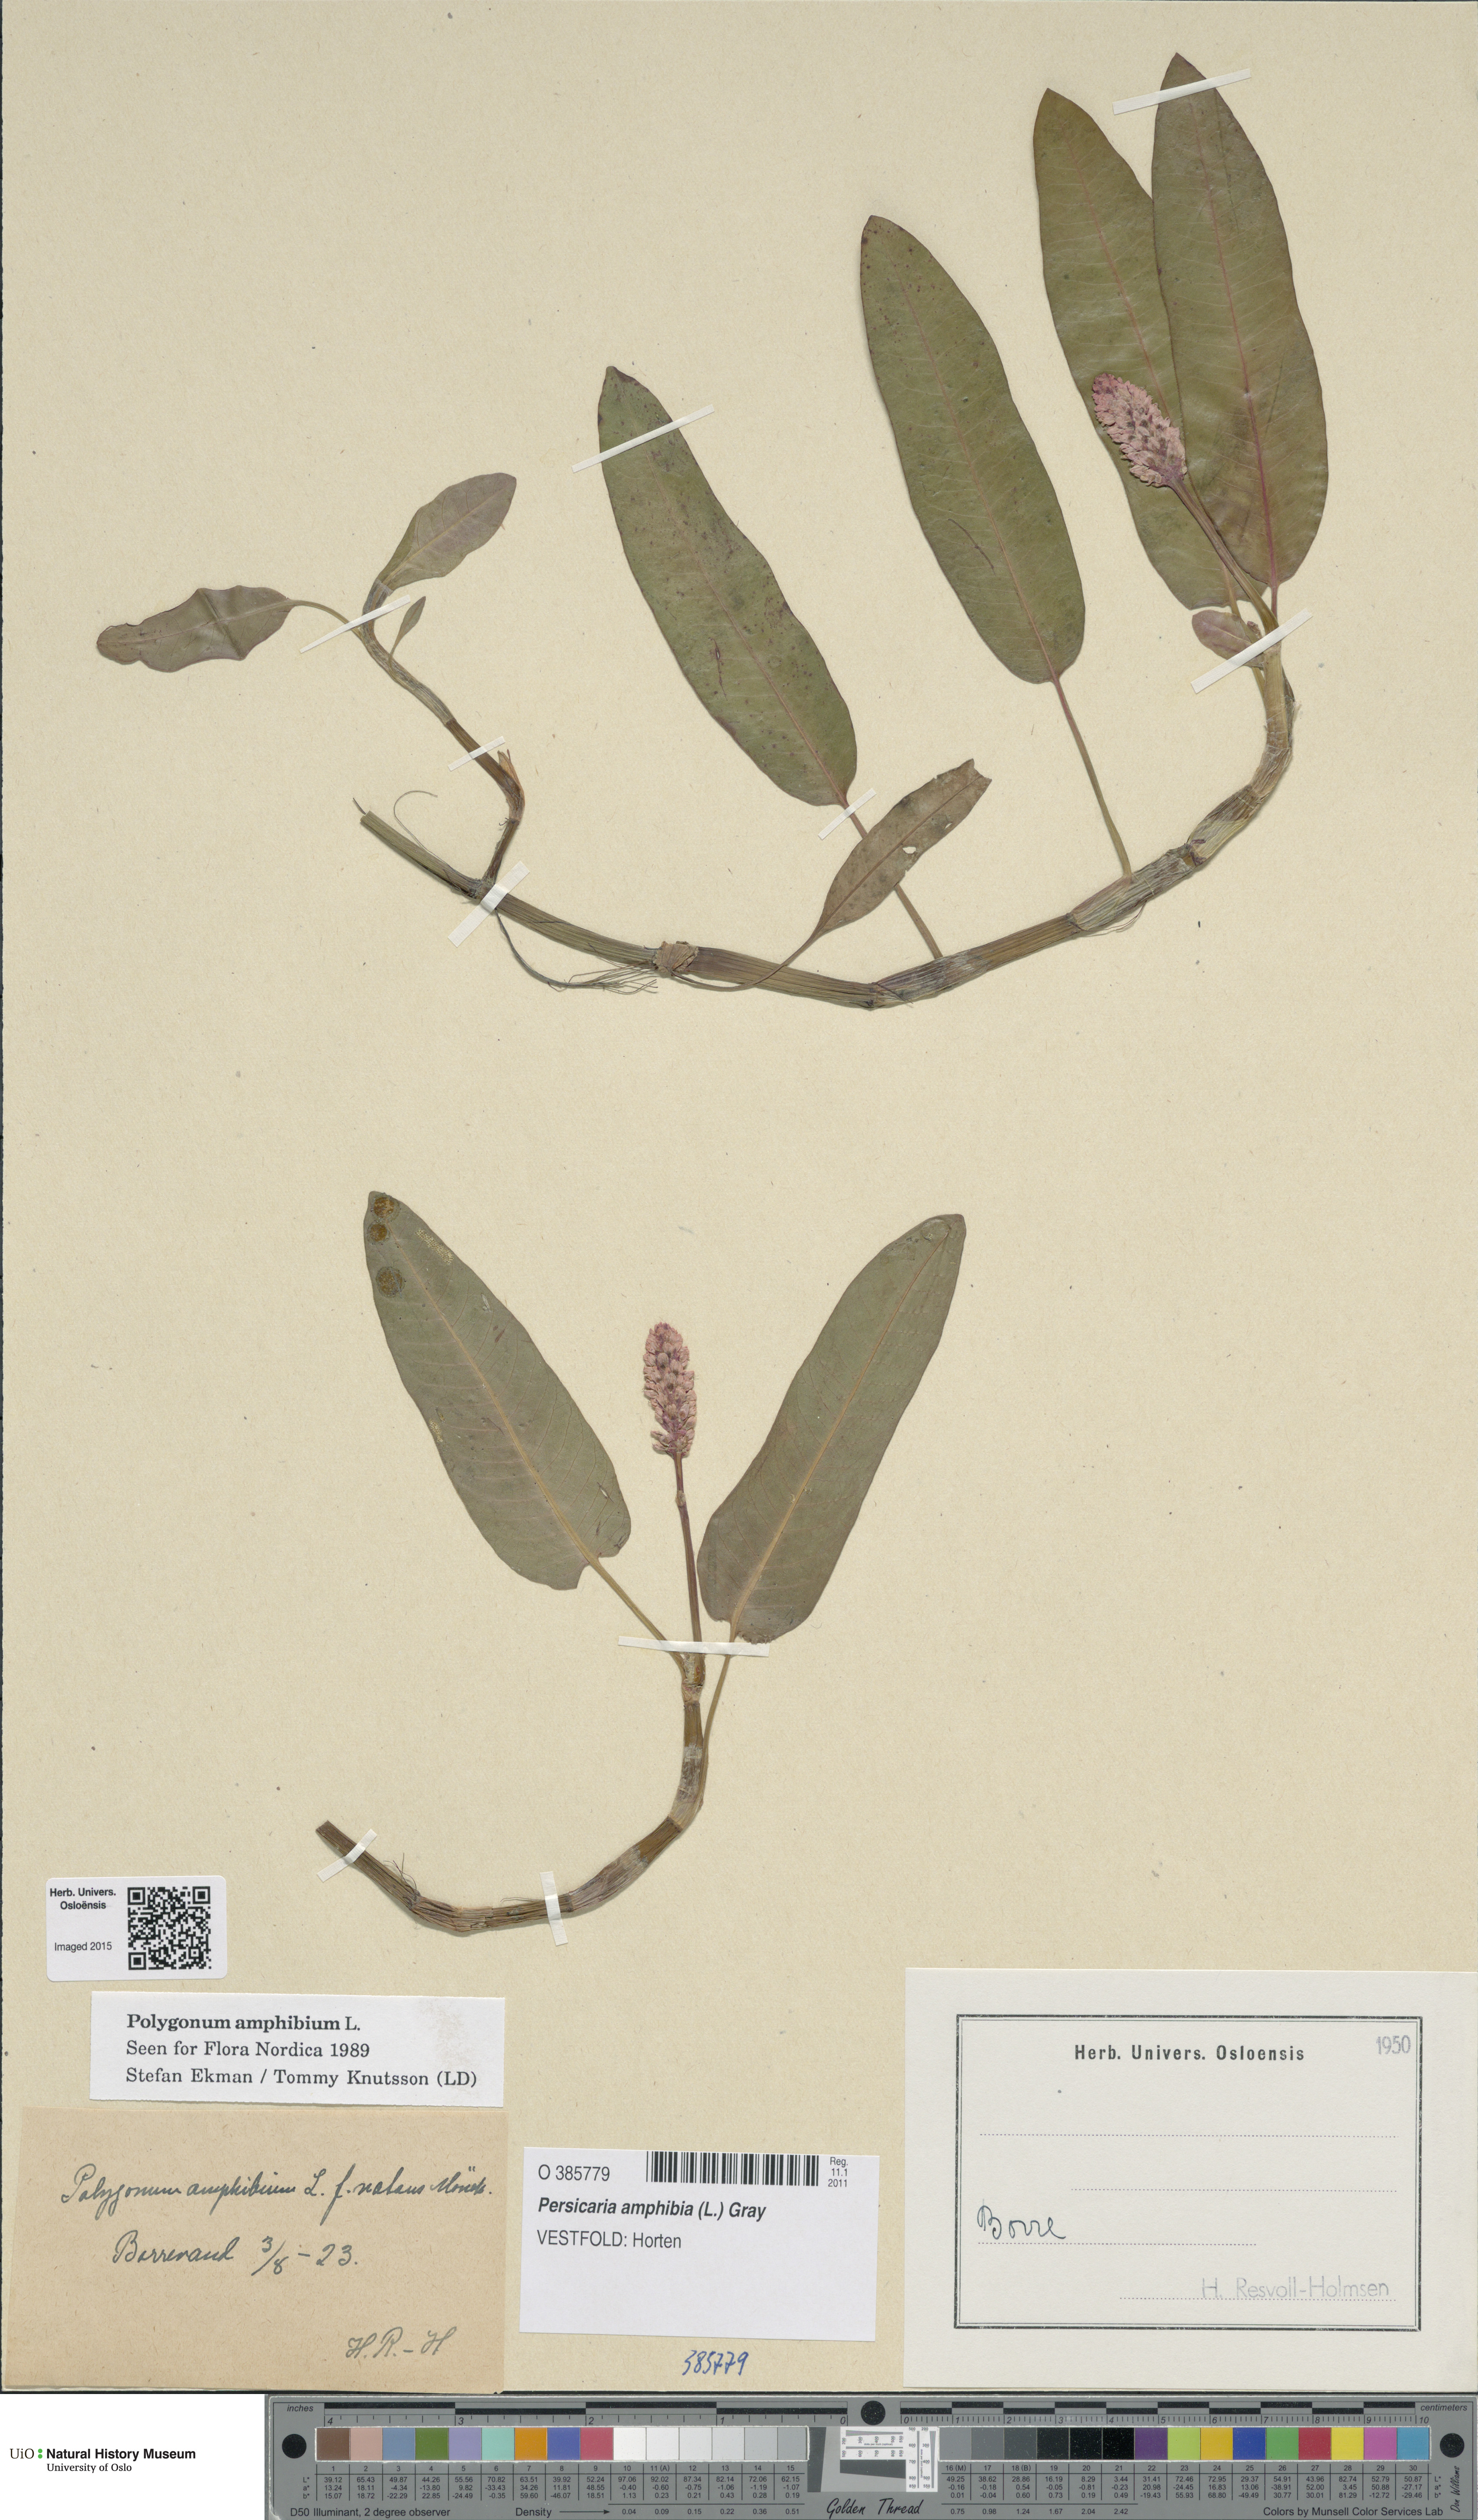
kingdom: Plantae
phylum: Tracheophyta
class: Magnoliopsida
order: Caryophyllales
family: Polygonaceae
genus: Persicaria
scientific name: Persicaria amphibia
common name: Amphibious bistort
